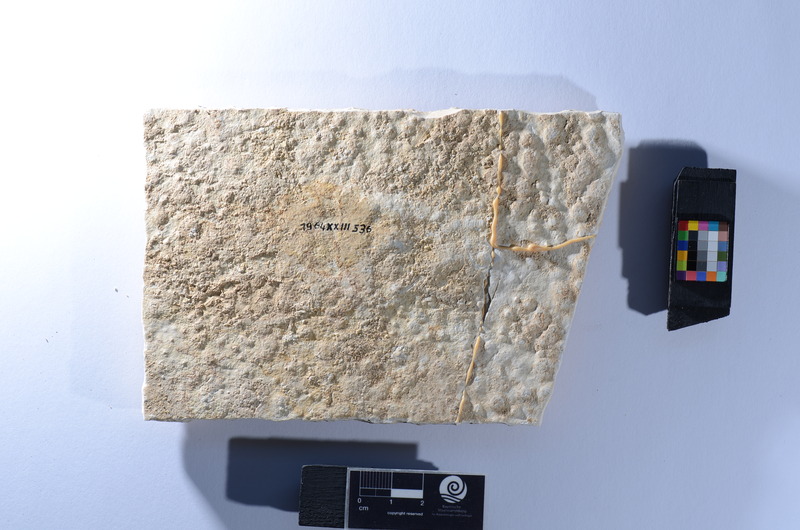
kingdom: Animalia
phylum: Chordata
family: Aspidorhynchidae
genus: Aspidorhynchus
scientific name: Aspidorhynchus
